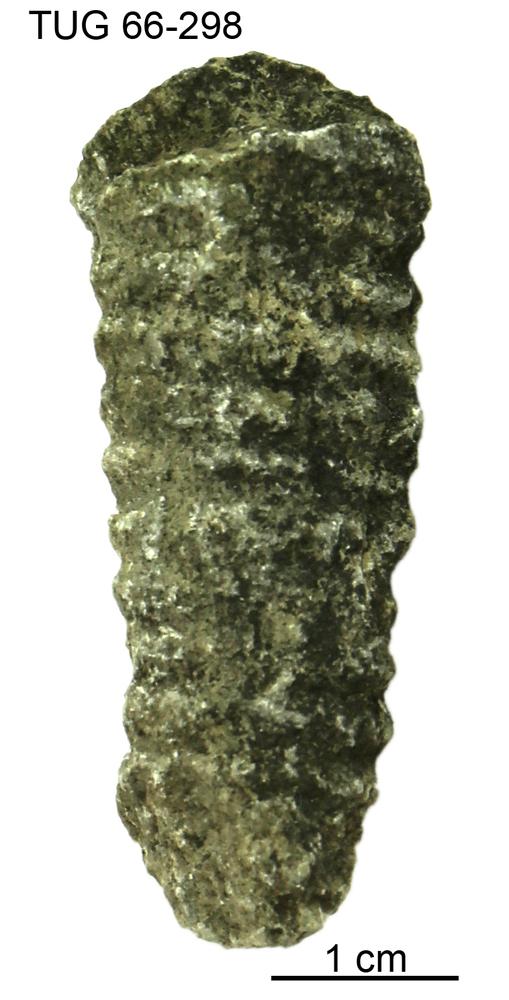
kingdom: Animalia
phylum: Mollusca
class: Cephalopoda
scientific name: Cephalopoda
